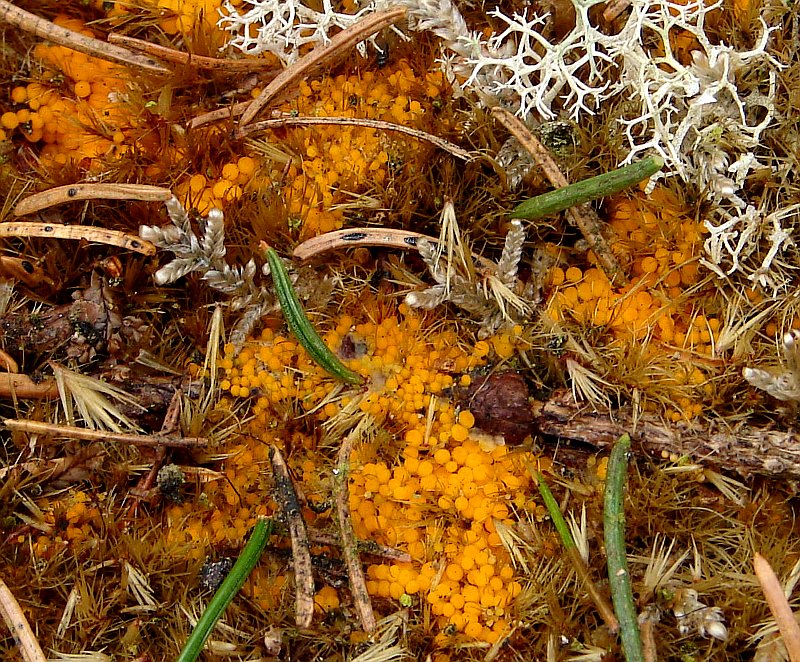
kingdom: Fungi
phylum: Ascomycota
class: Pezizomycetes
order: Pezizales
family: Pyronemataceae
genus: Byssonectria
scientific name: Byssonectria terrestris
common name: hjortebæger
